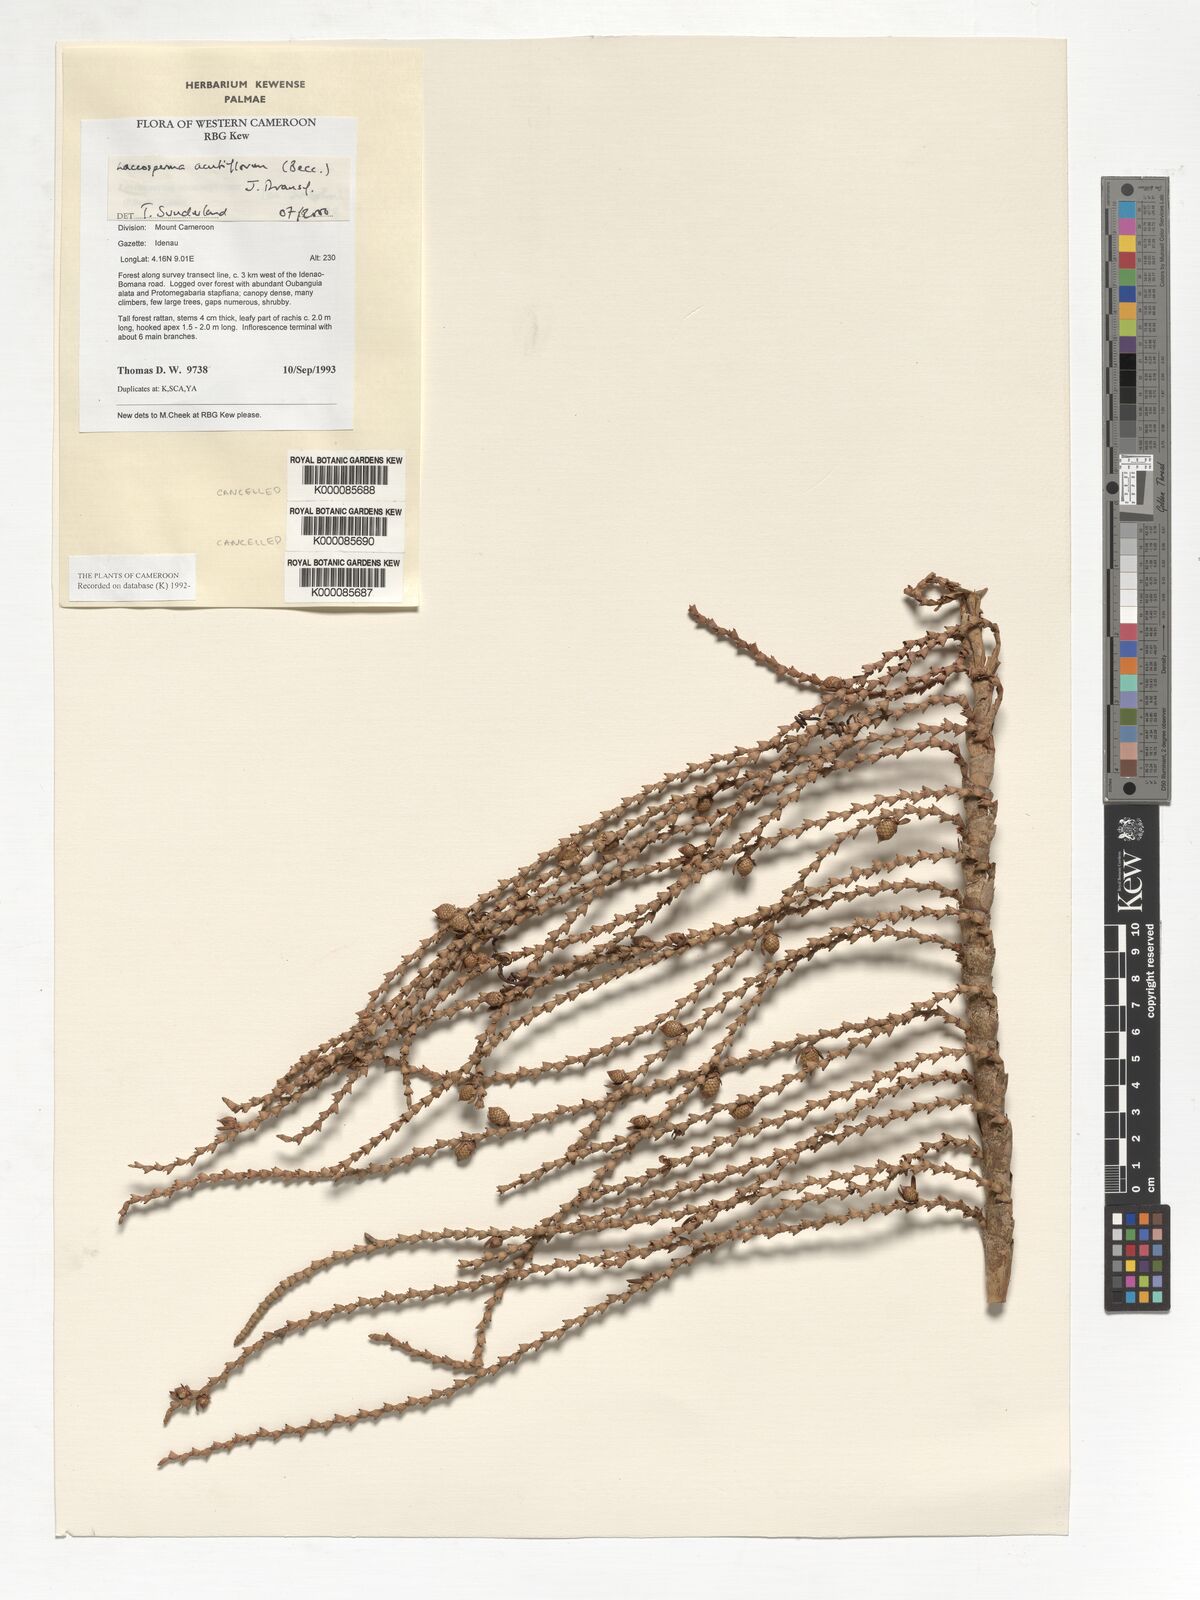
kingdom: Plantae
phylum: Tracheophyta
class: Liliopsida
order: Arecales
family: Arecaceae
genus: Laccosperma
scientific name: Laccosperma secundiflorum
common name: Rattan
